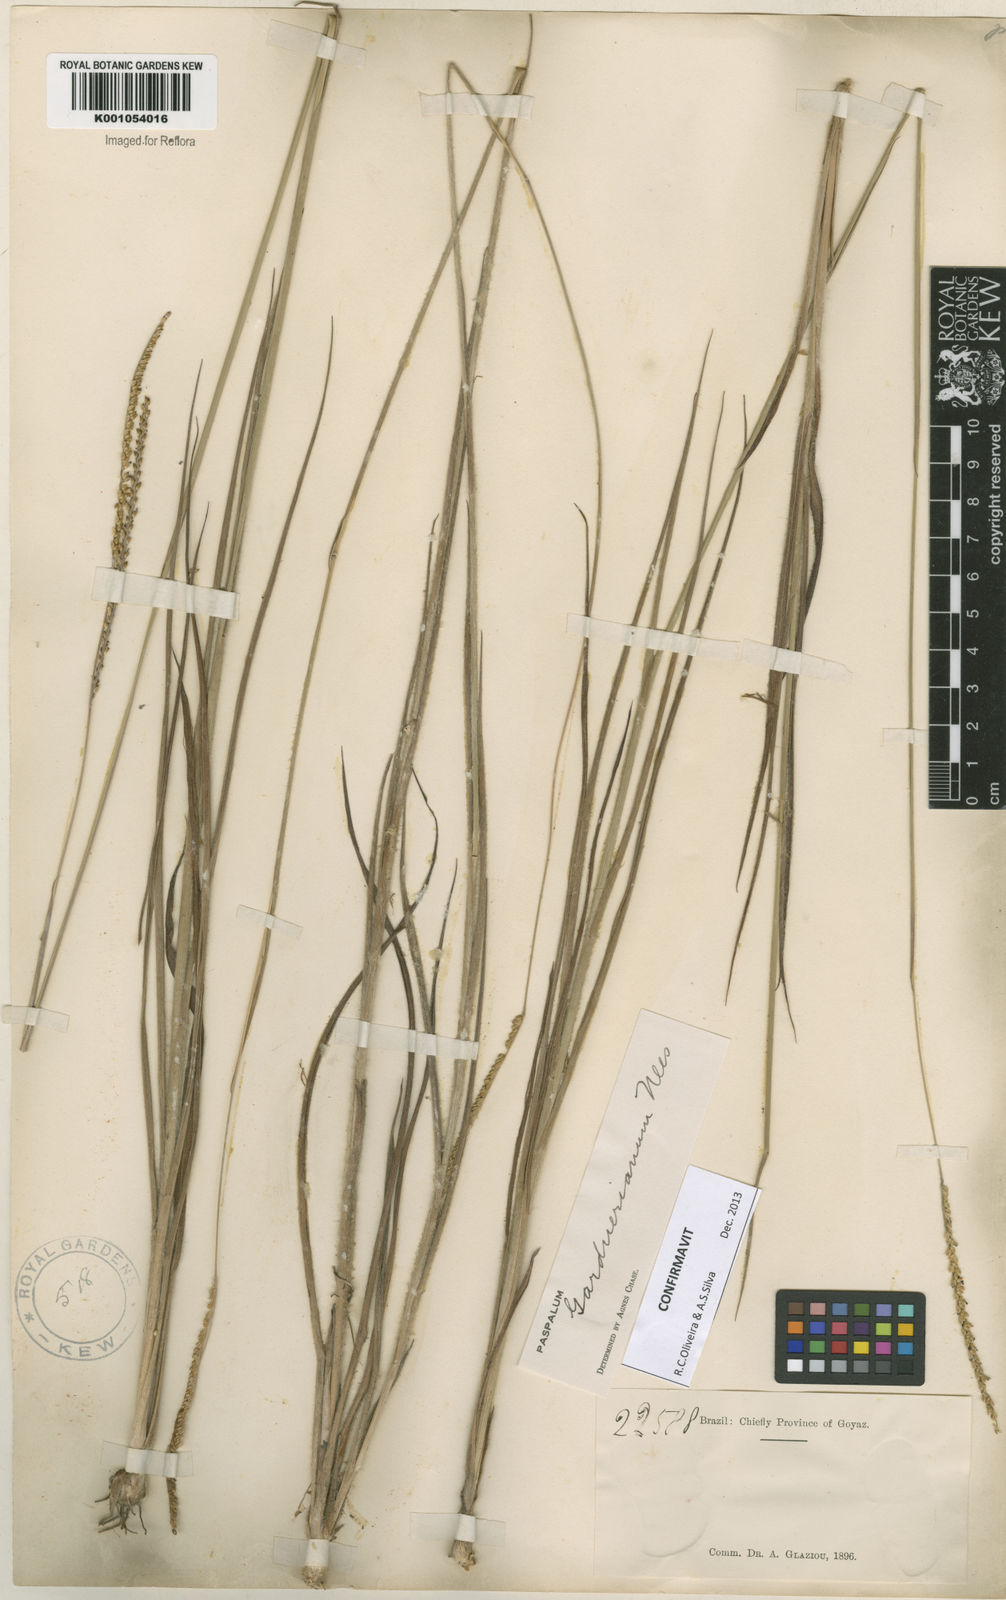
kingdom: Plantae
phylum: Tracheophyta
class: Liliopsida
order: Poales
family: Poaceae
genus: Paspalum
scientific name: Paspalum gardnerianum
